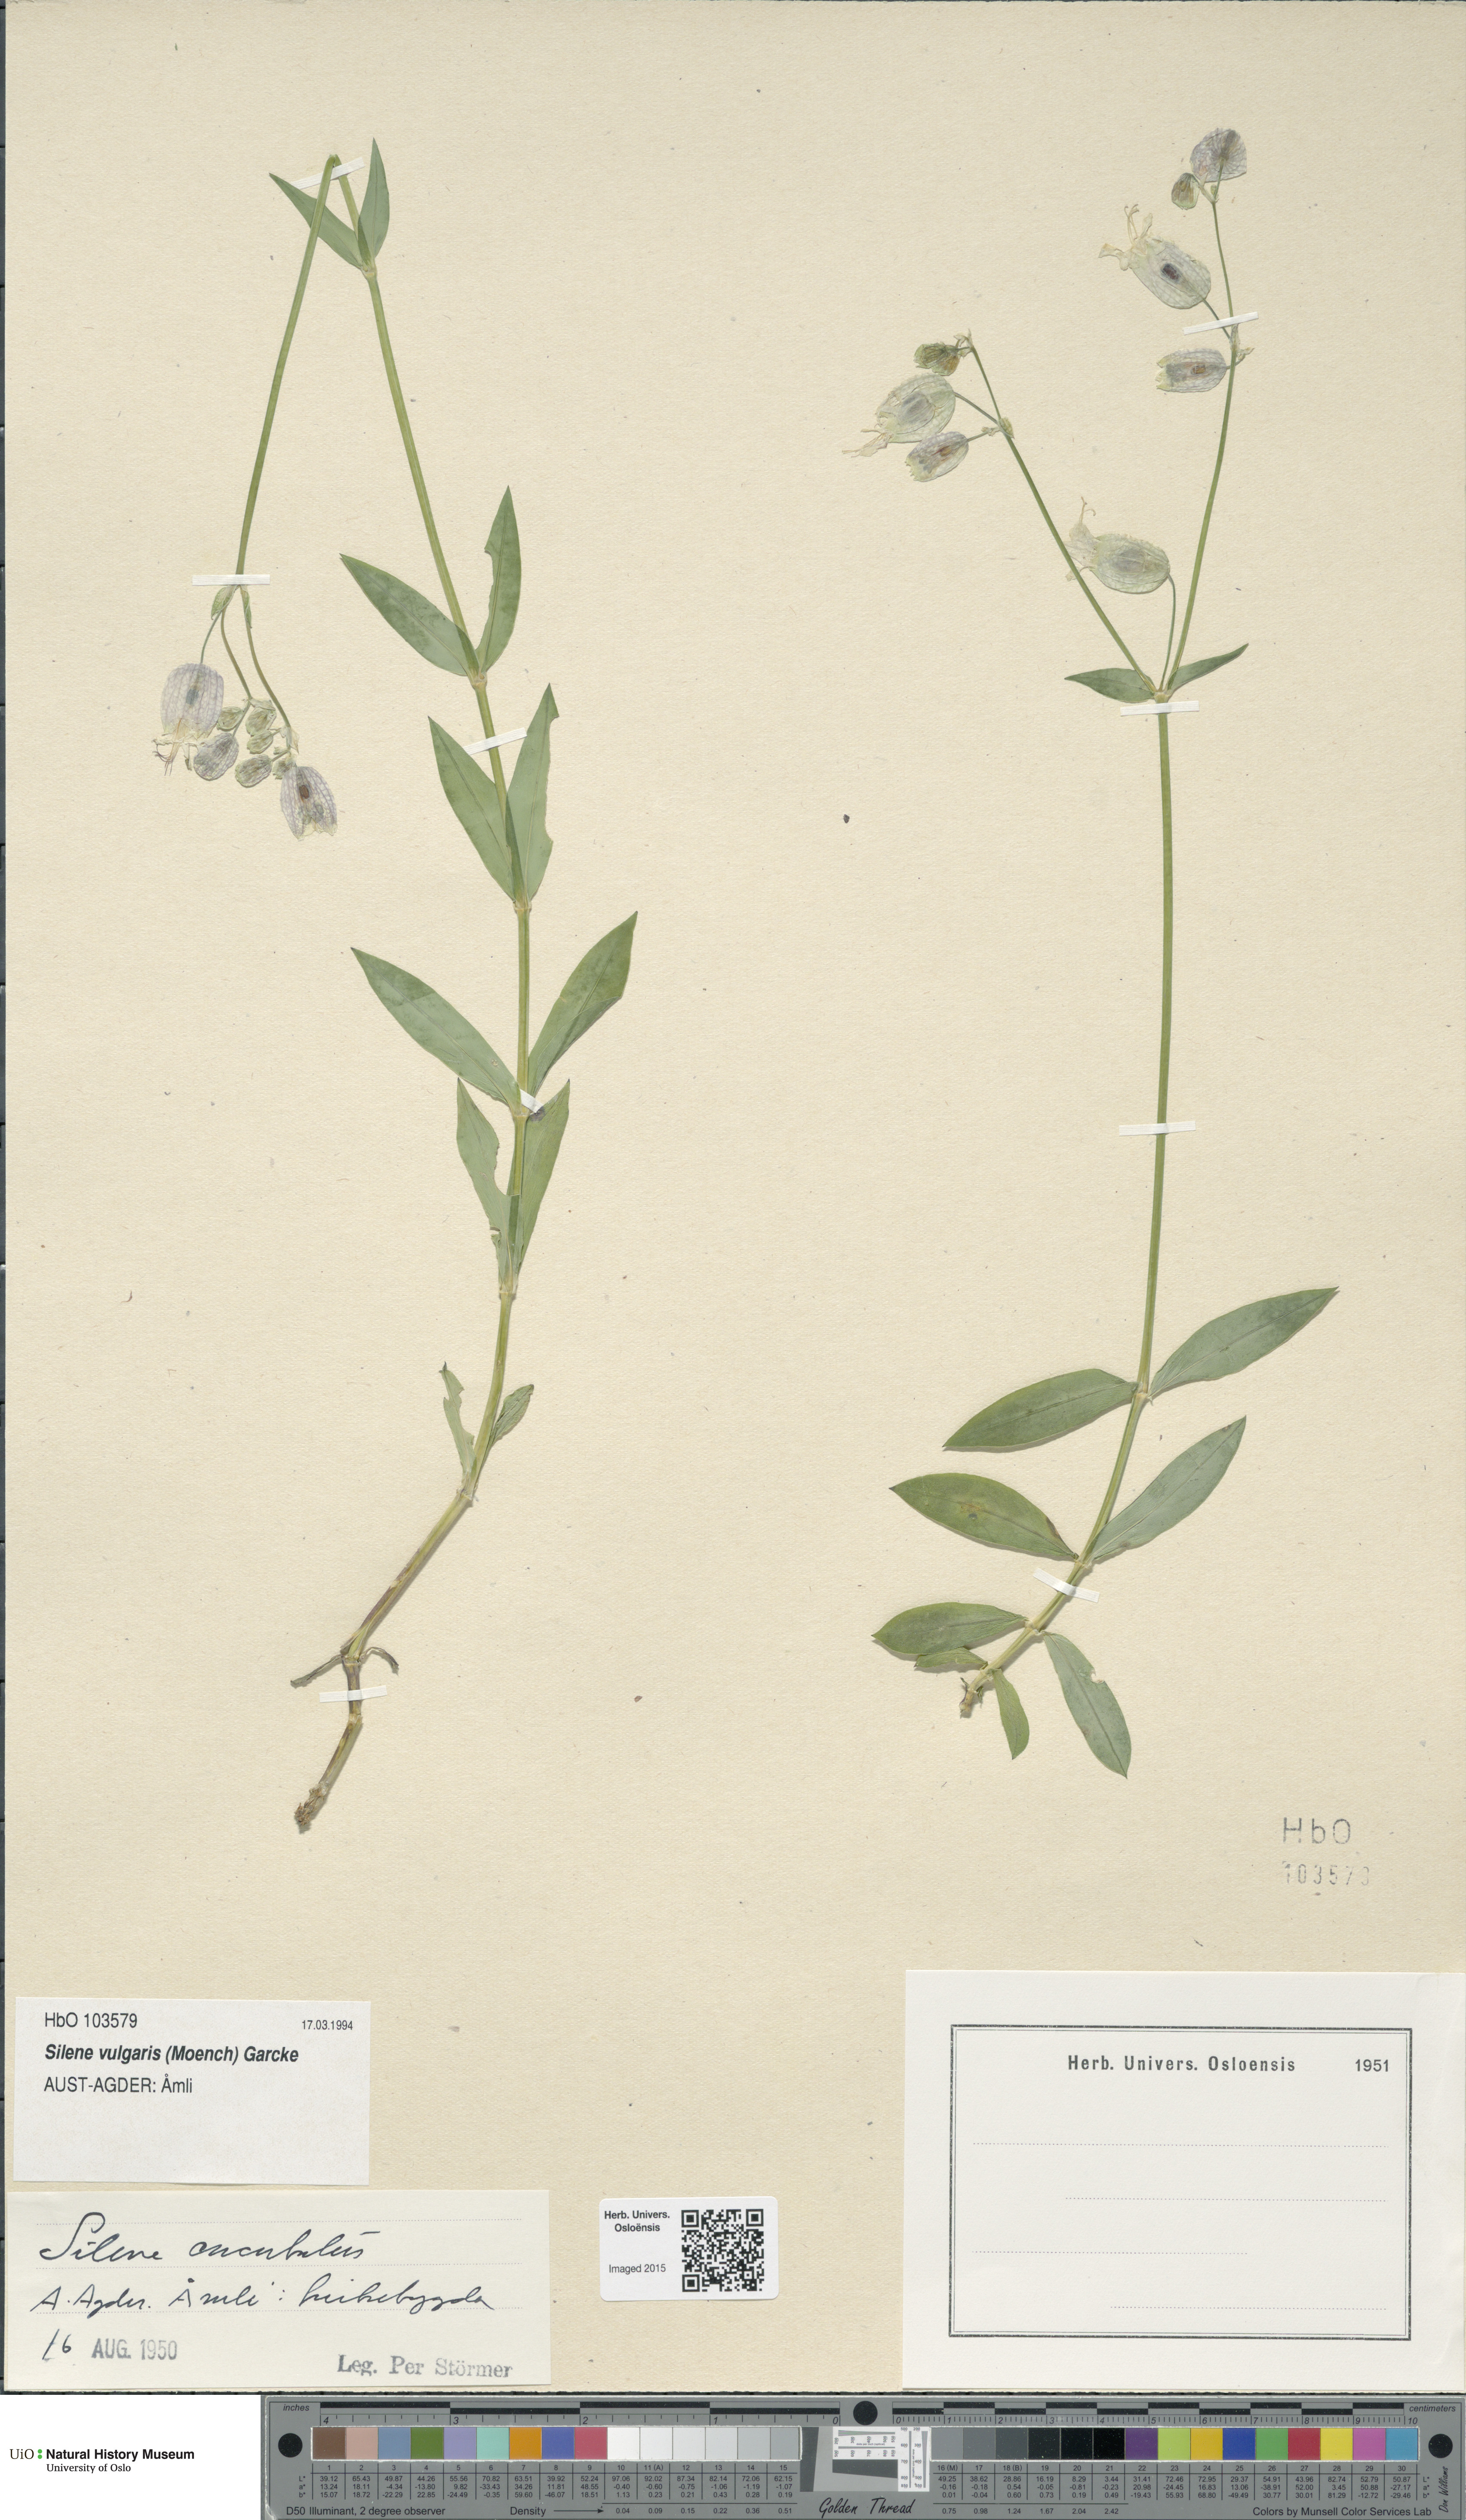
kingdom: Plantae
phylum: Tracheophyta
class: Magnoliopsida
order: Caryophyllales
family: Caryophyllaceae
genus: Silene
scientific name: Silene vulgaris
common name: Bladder campion
